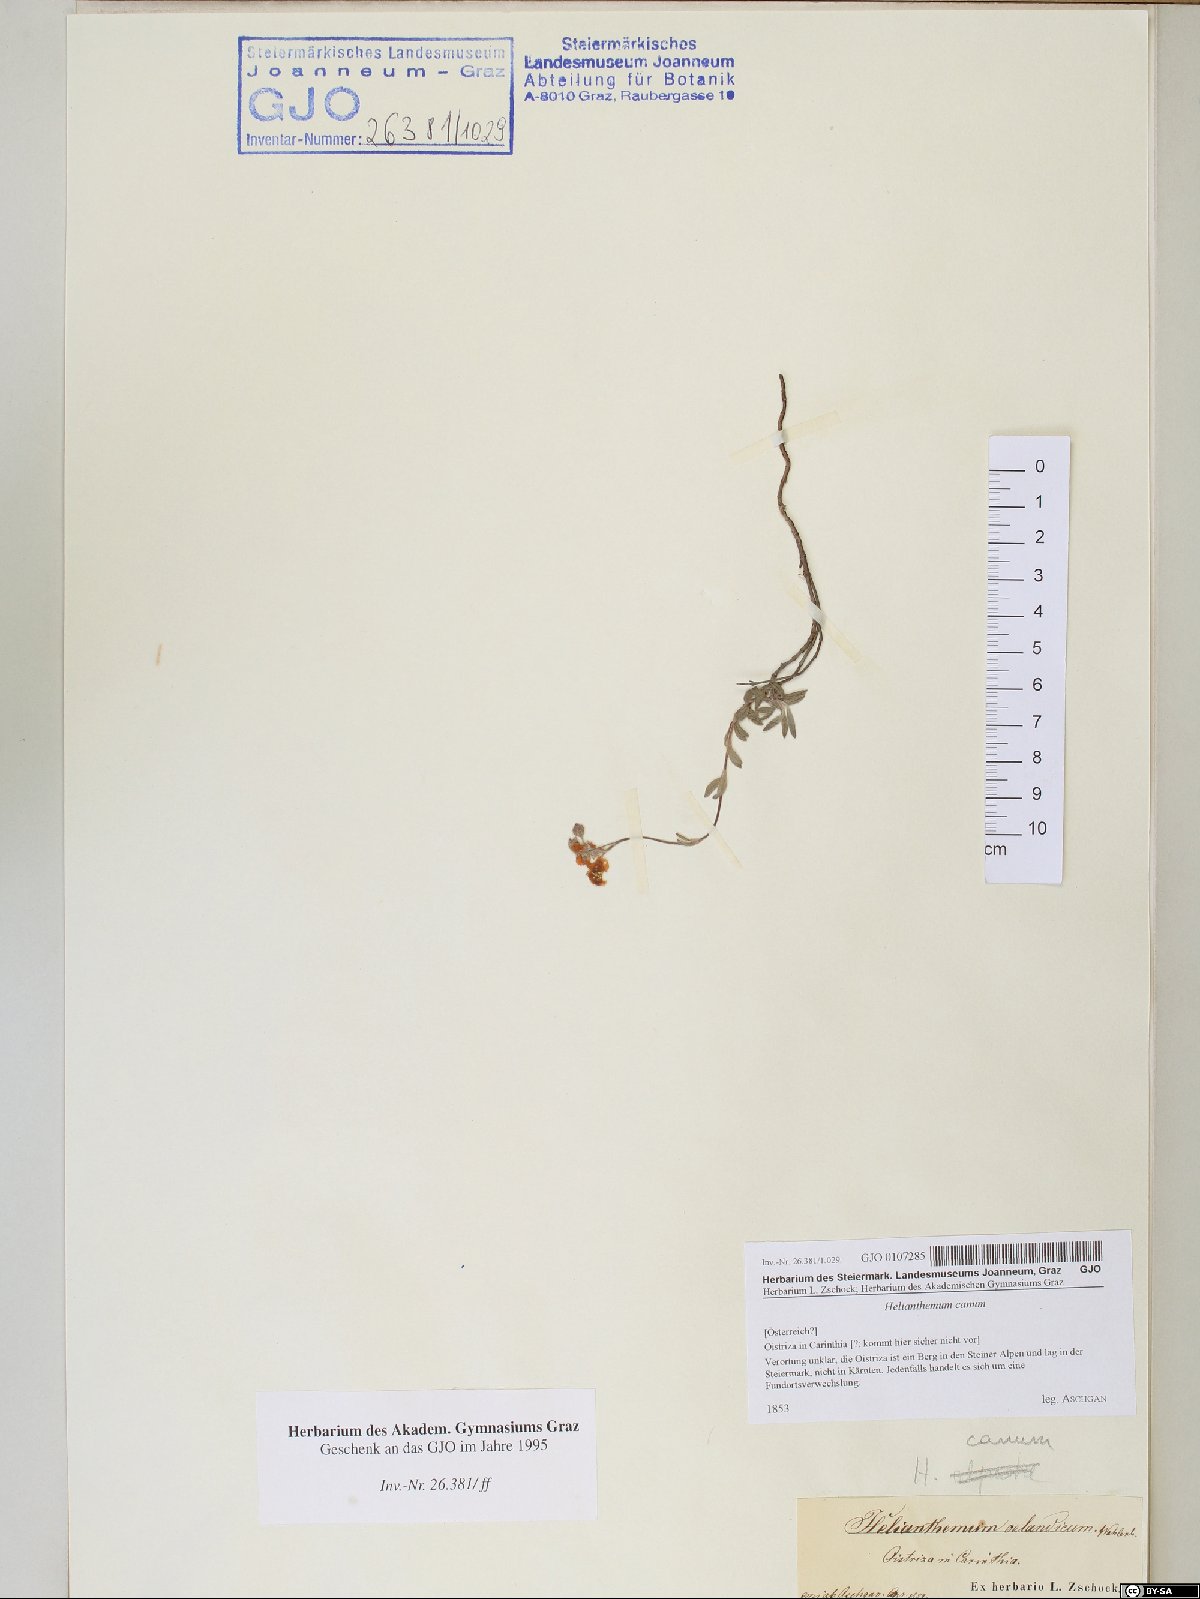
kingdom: Plantae
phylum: Tracheophyta
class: Magnoliopsida
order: Malvales
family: Cistaceae
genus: Helianthemum
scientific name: Helianthemum canum
